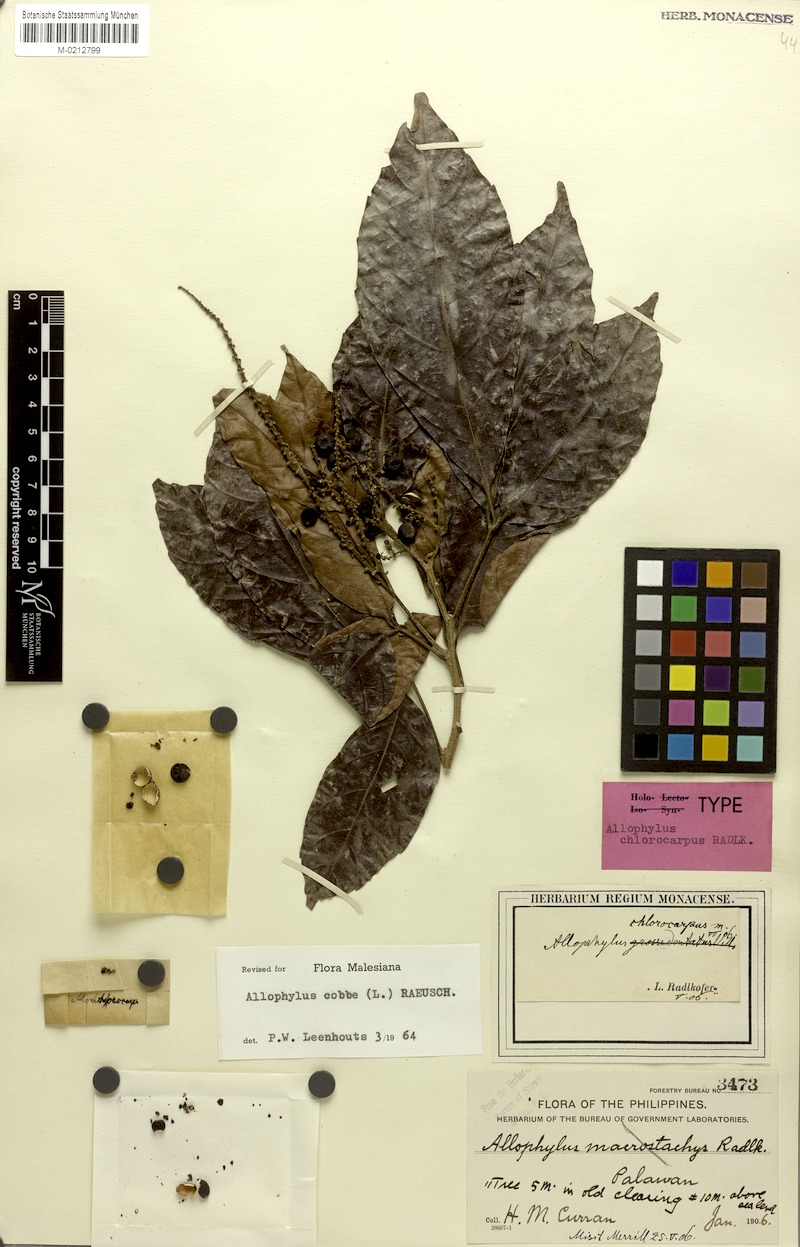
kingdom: Plantae
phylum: Tracheophyta
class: Magnoliopsida
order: Sapindales
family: Sapindaceae
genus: Allophylus
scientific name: Allophylus chlorocarpus
